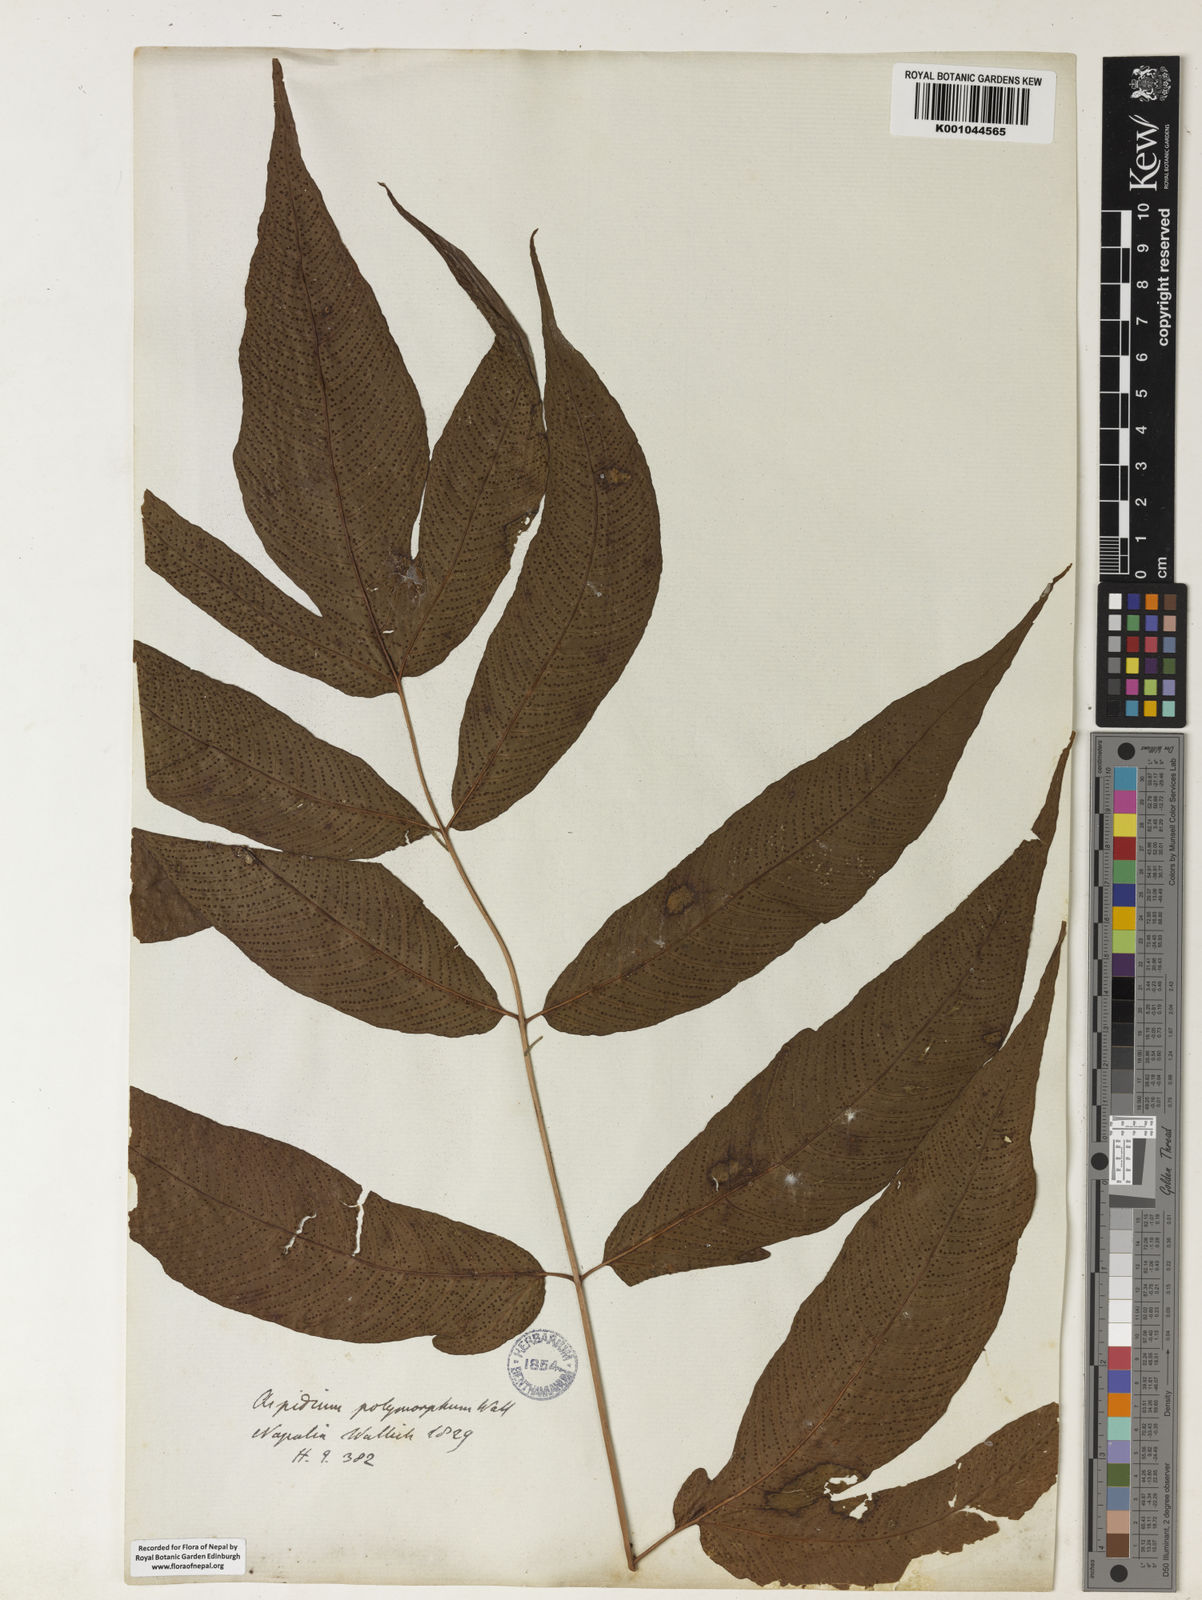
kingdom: Plantae
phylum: Tracheophyta
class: Polypodiopsida
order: Polypodiales
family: Tectariaceae
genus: Tectaria
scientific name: Tectaria wightii
